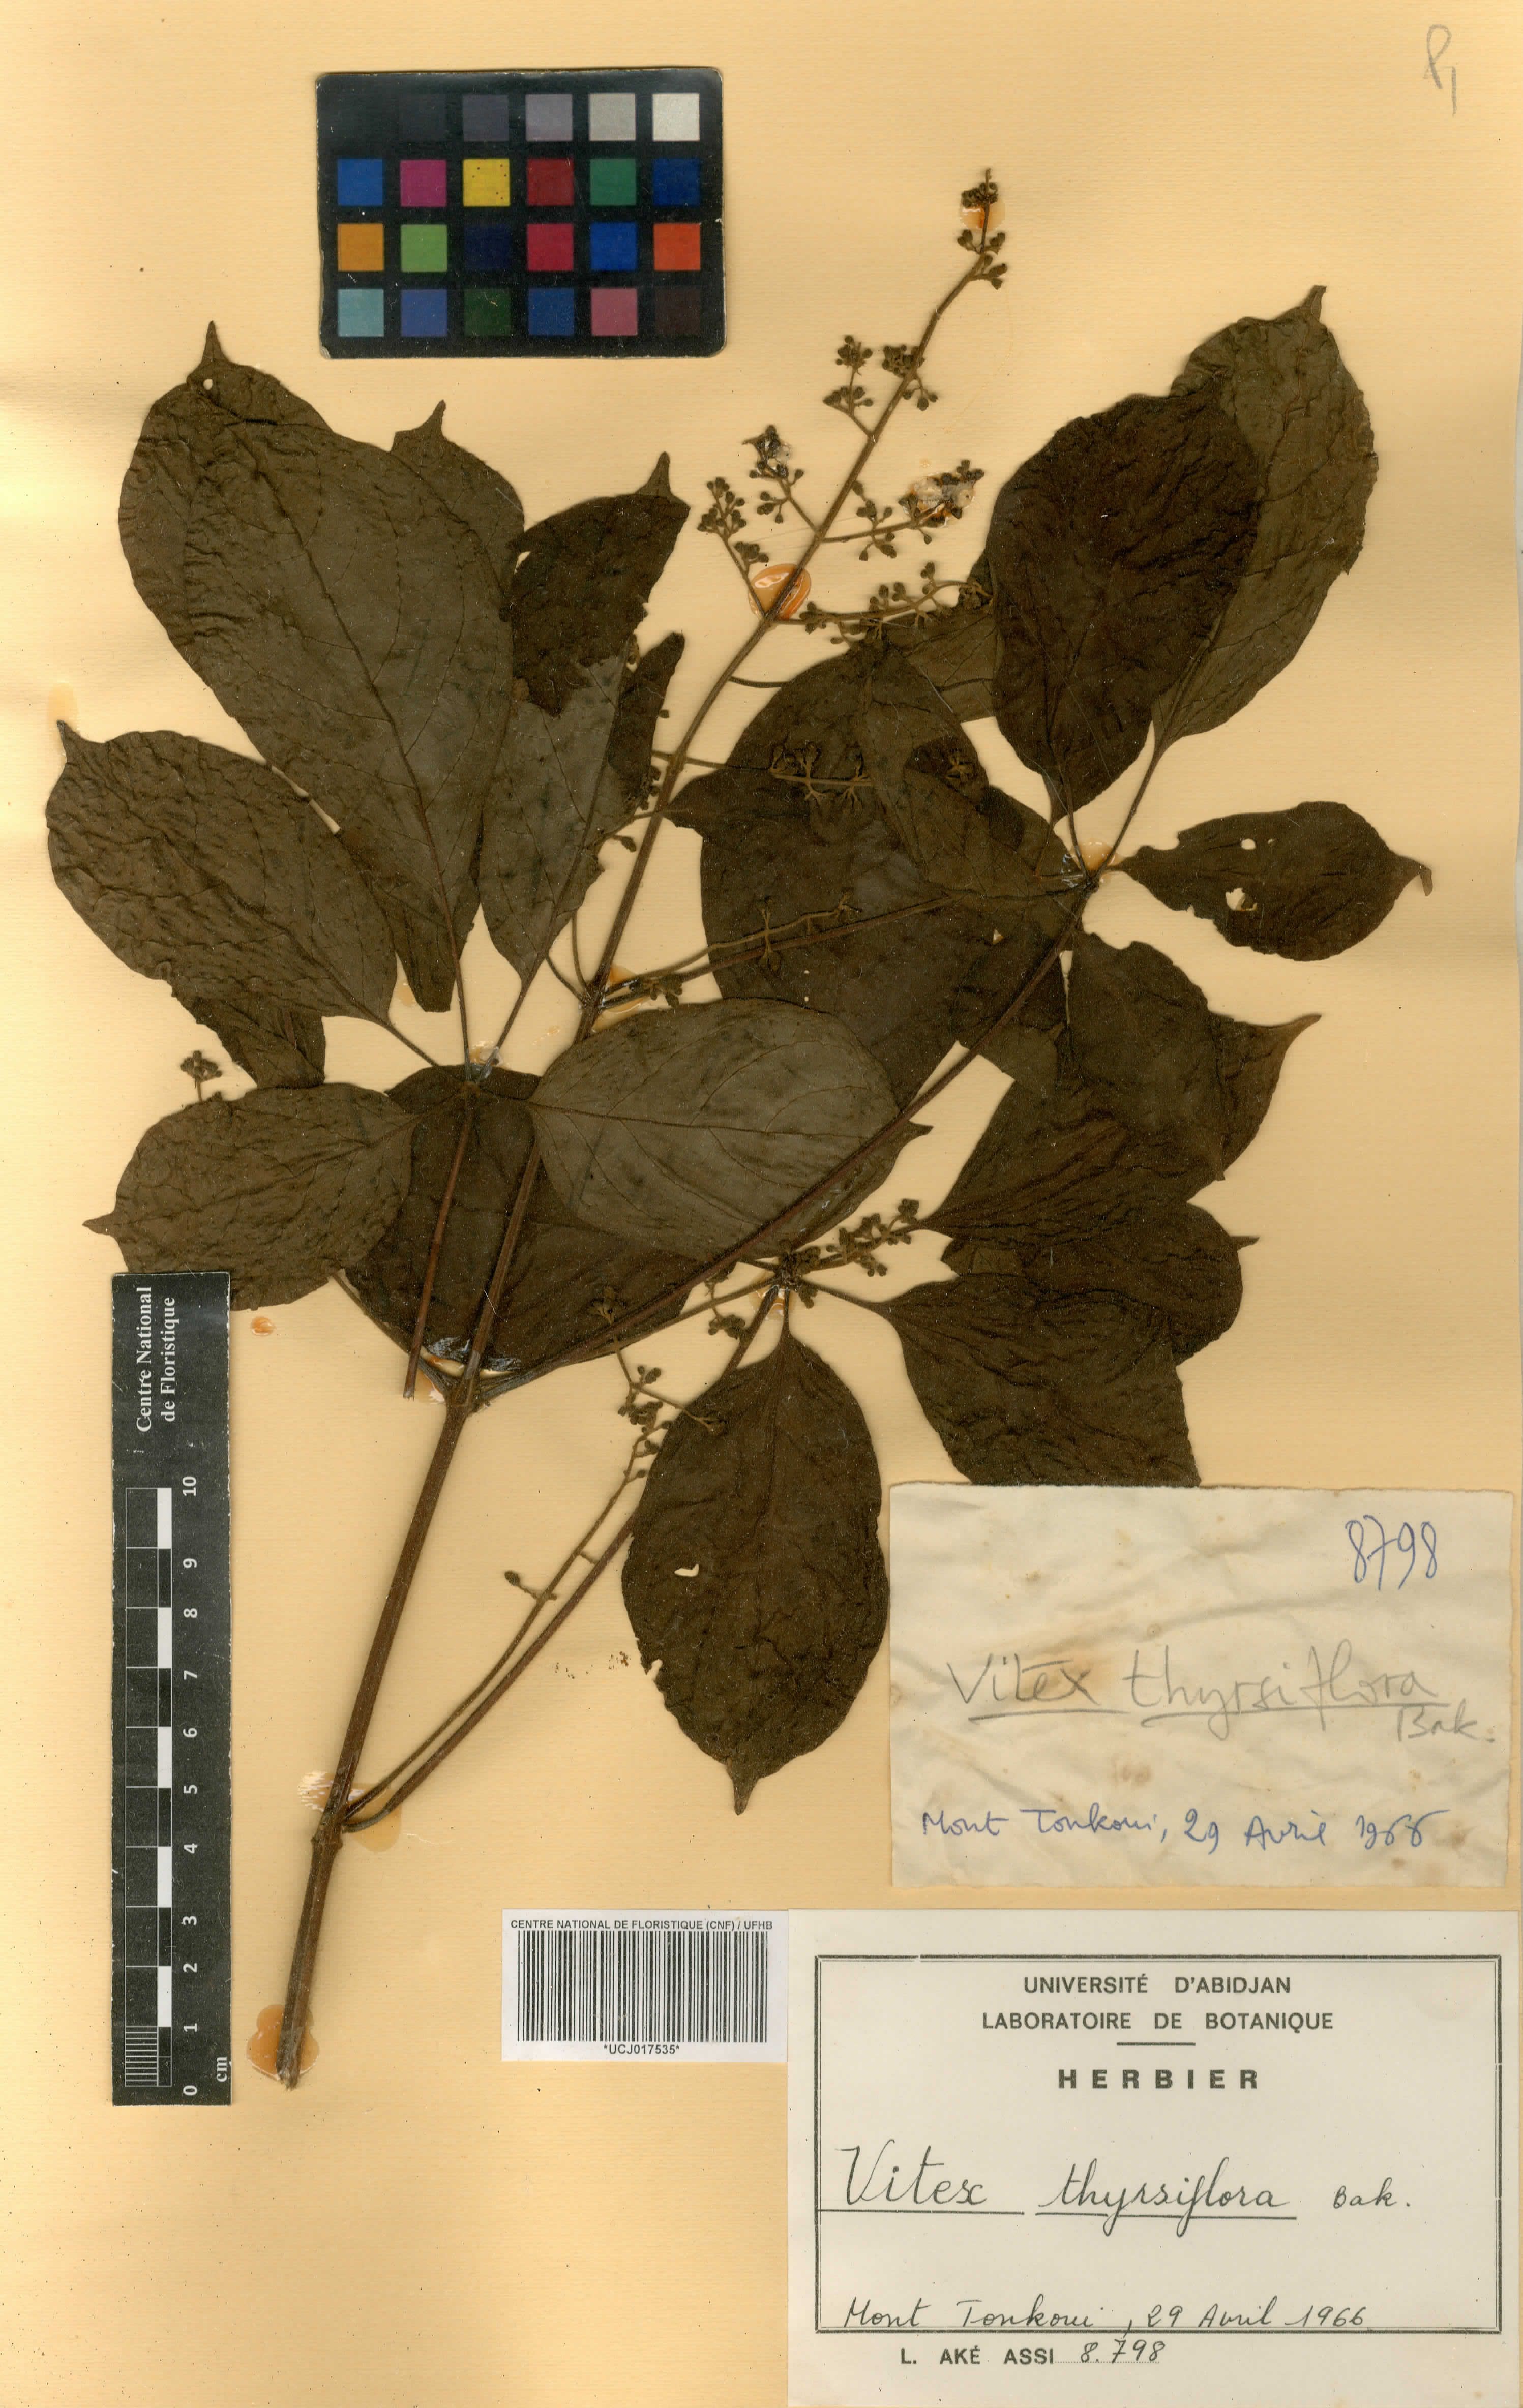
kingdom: Plantae
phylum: Tracheophyta
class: Magnoliopsida
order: Lamiales
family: Lamiaceae
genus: Vitex
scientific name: Vitex thyrsiflora
